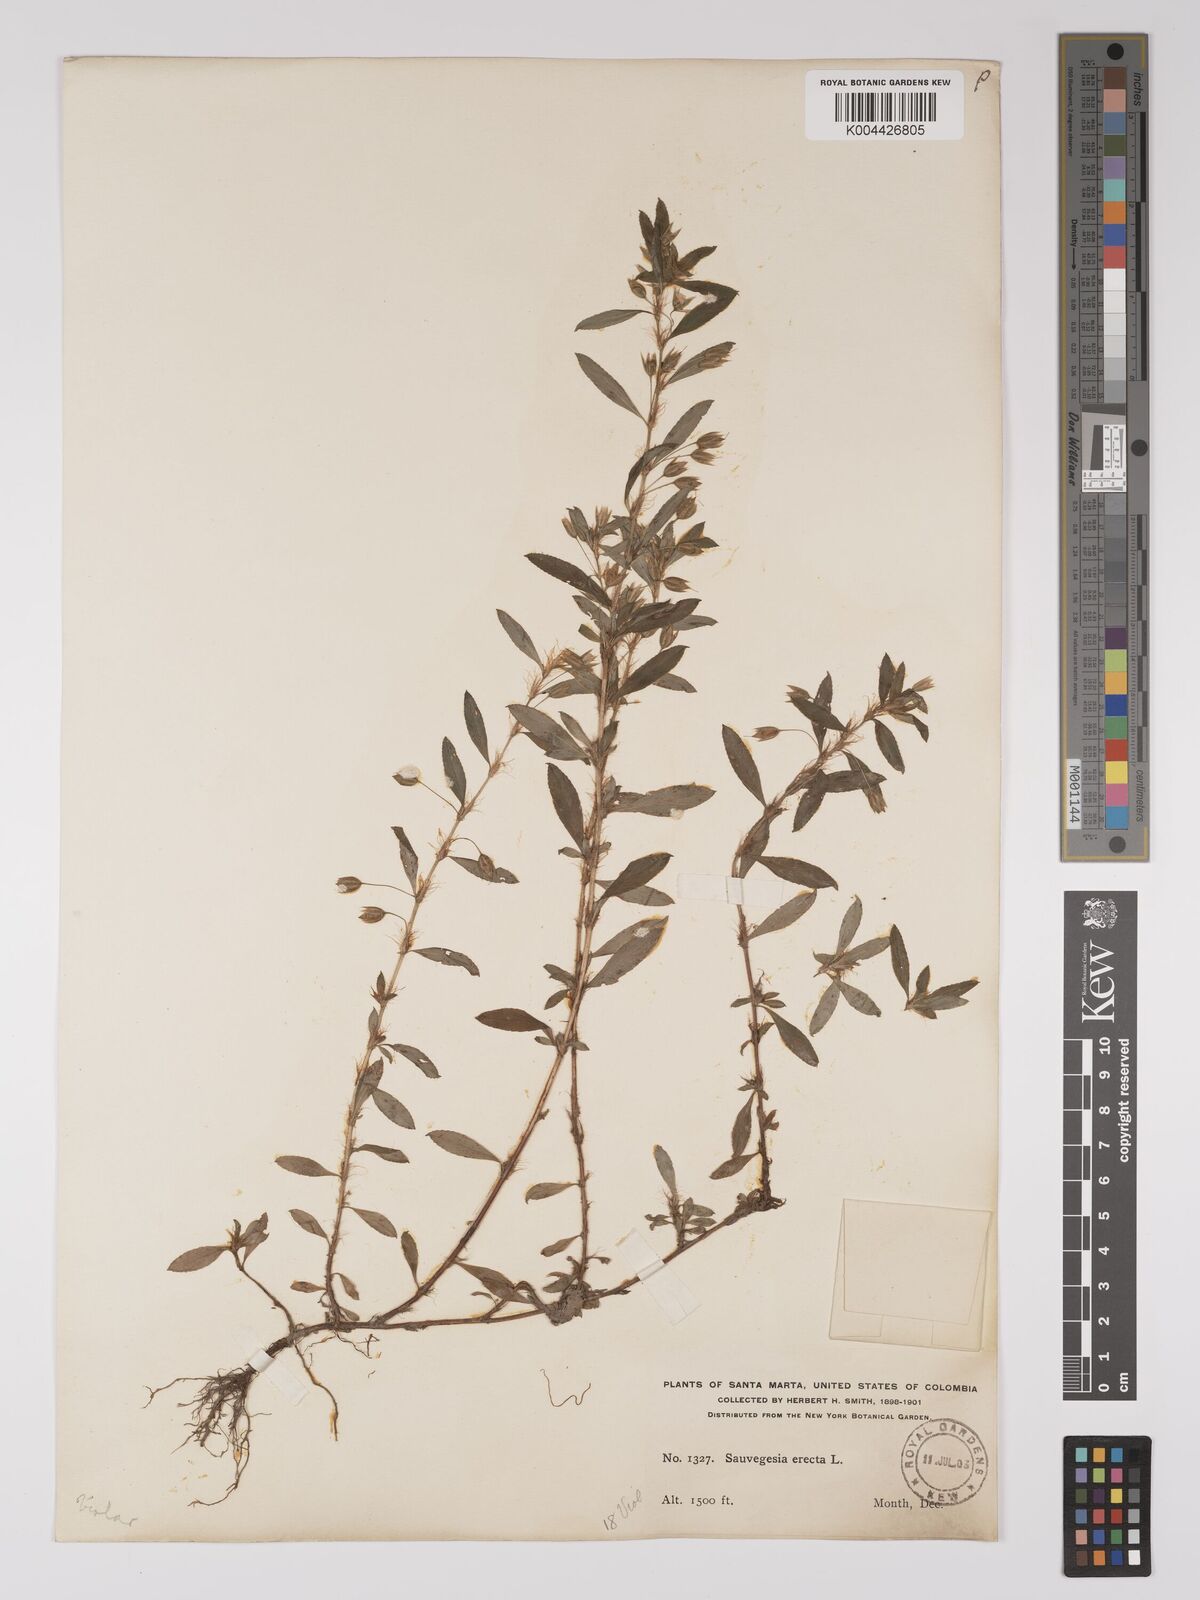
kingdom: Plantae
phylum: Tracheophyta
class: Magnoliopsida
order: Malpighiales
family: Ochnaceae
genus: Sauvagesia
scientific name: Sauvagesia erecta
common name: Creole tea
